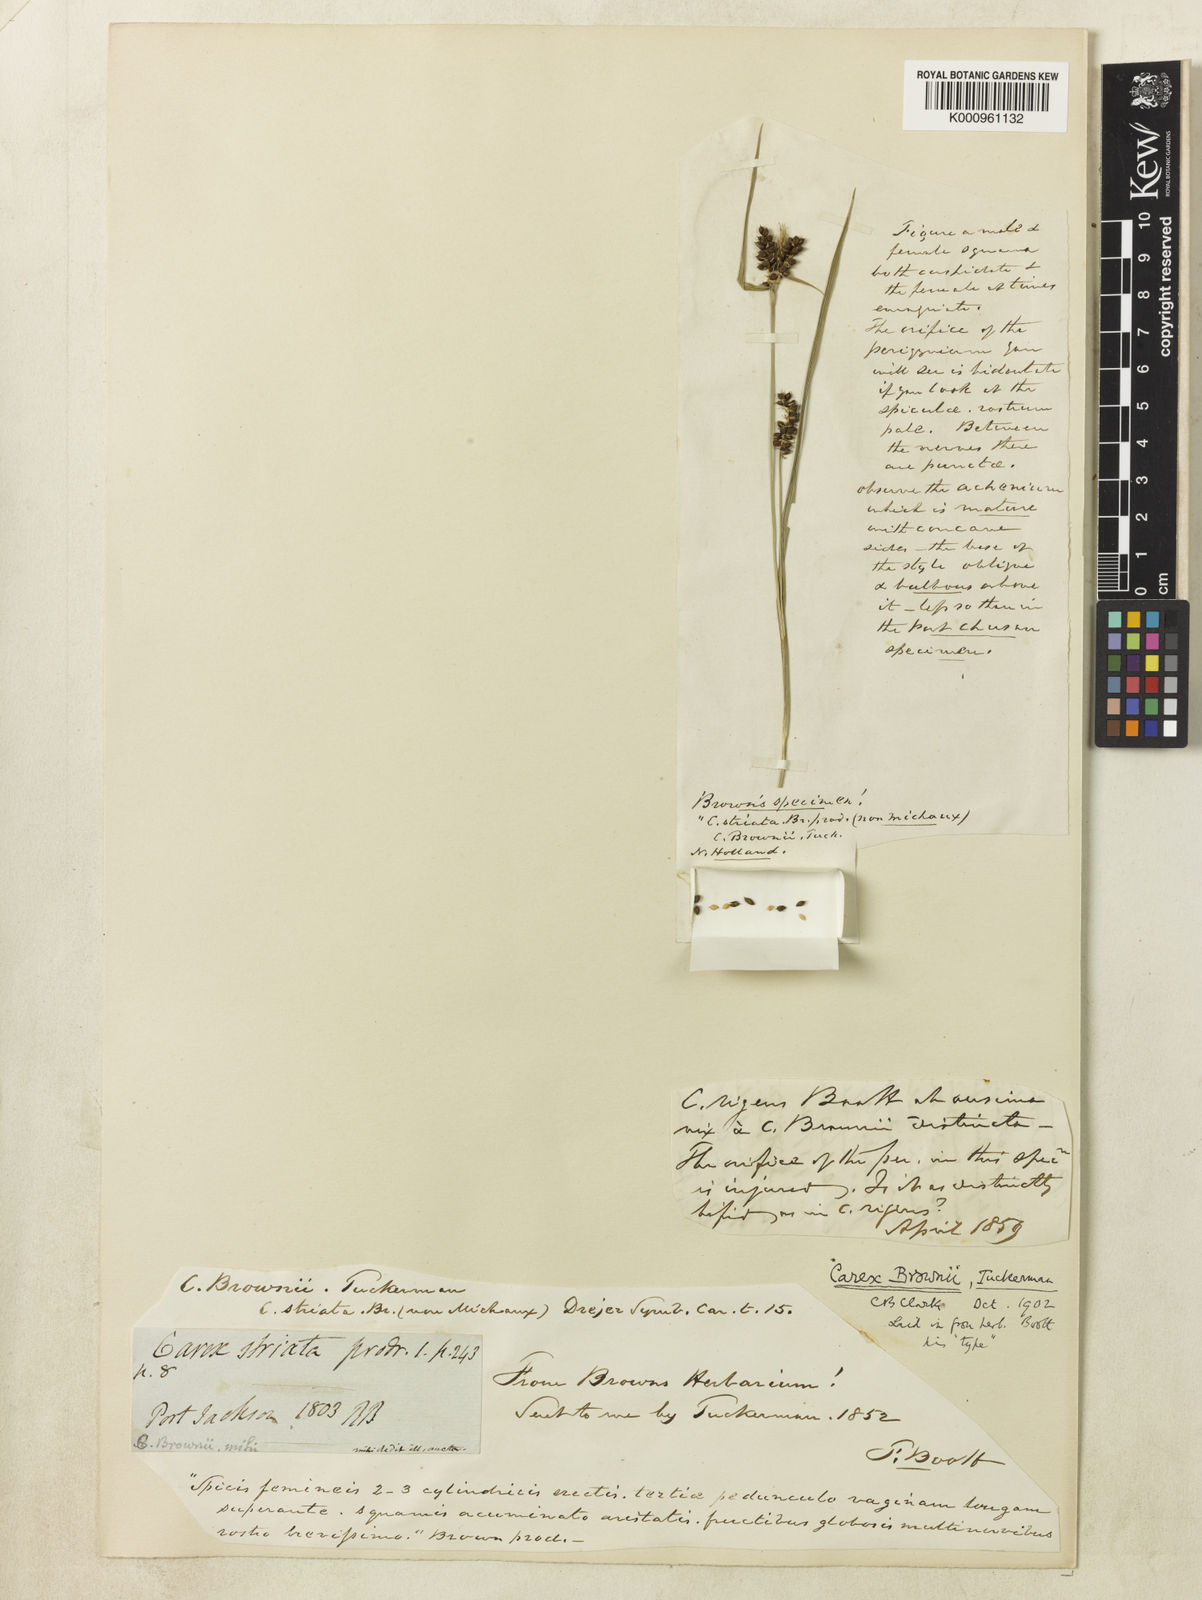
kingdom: Plantae
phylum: Tracheophyta
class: Liliopsida
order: Poales
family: Cyperaceae
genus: Carex
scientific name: Carex brownii
